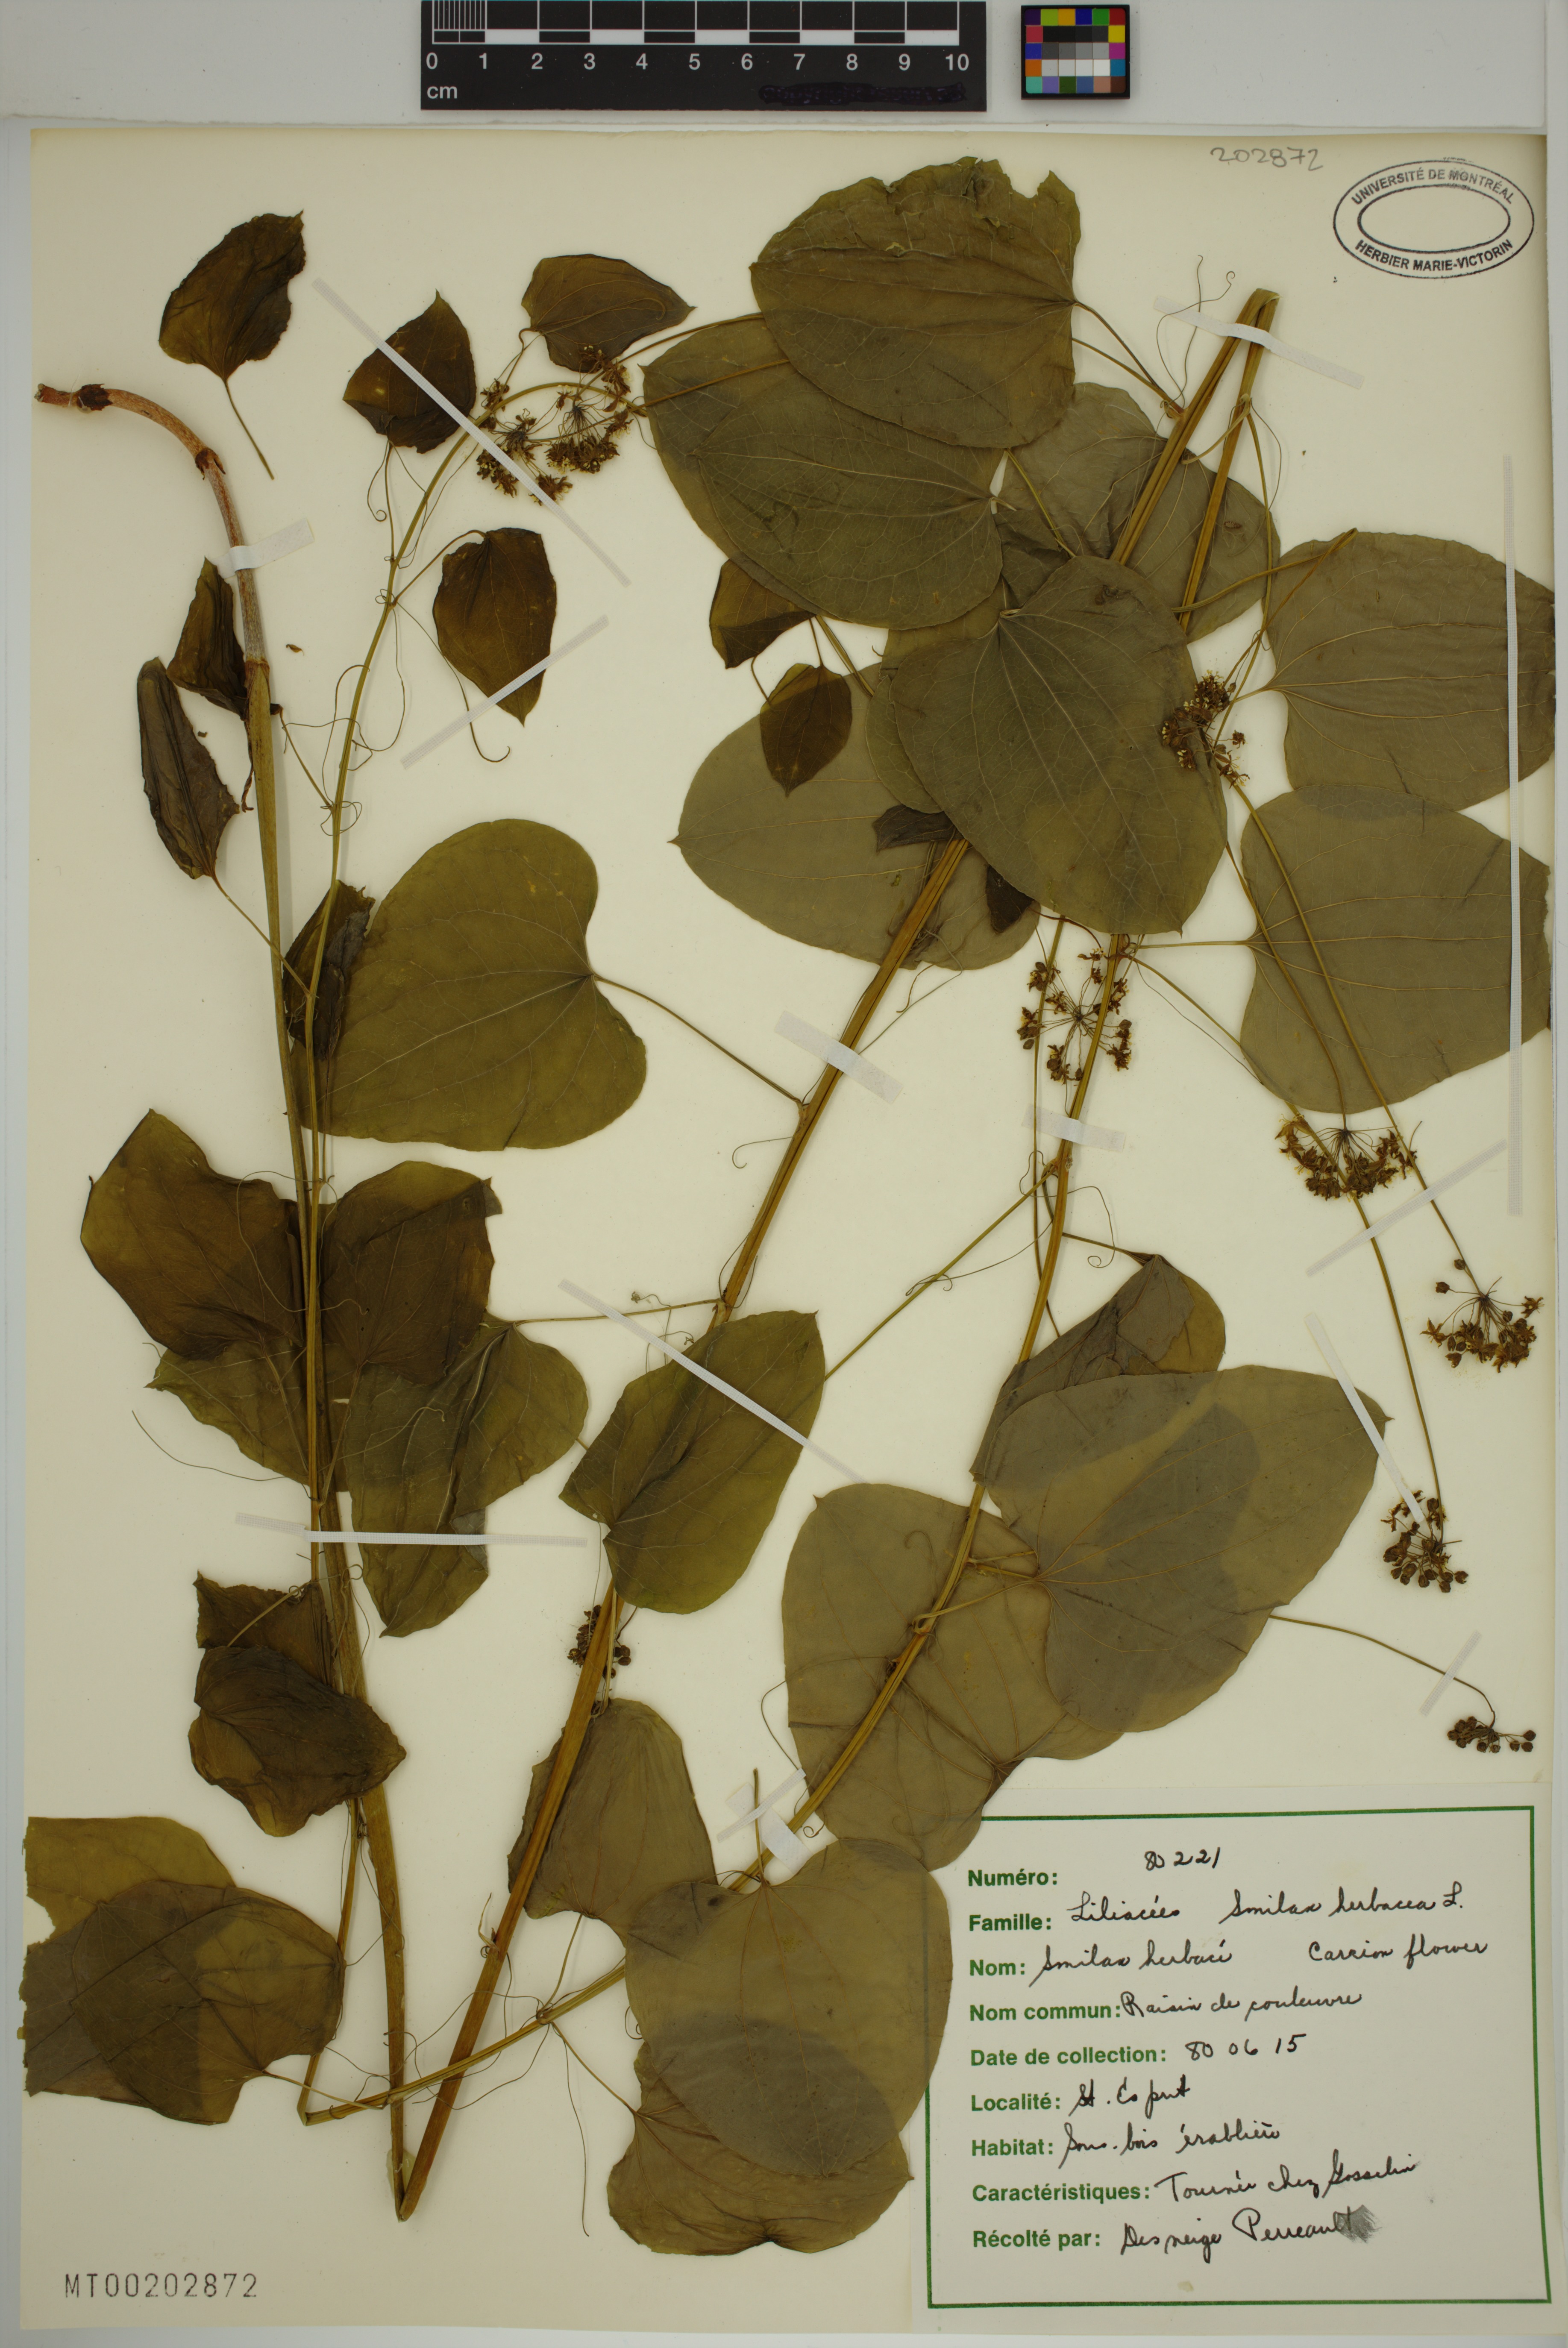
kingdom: Plantae
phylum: Tracheophyta
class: Liliopsida
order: Liliales
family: Smilacaceae
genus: Smilax
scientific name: Smilax herbacea
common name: Jacob's-ladder
